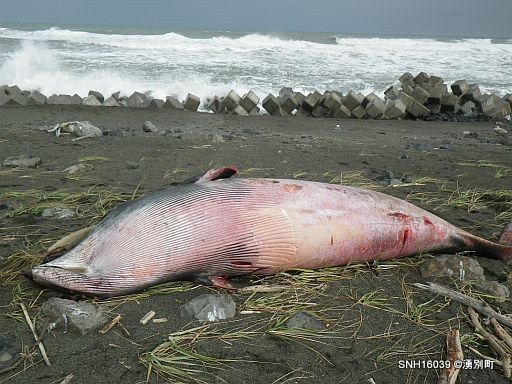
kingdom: Animalia
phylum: Chordata
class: Mammalia
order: Cetacea
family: Balaenopteridae
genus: Balaenoptera
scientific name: Balaenoptera acutorostrata
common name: Minke whale
